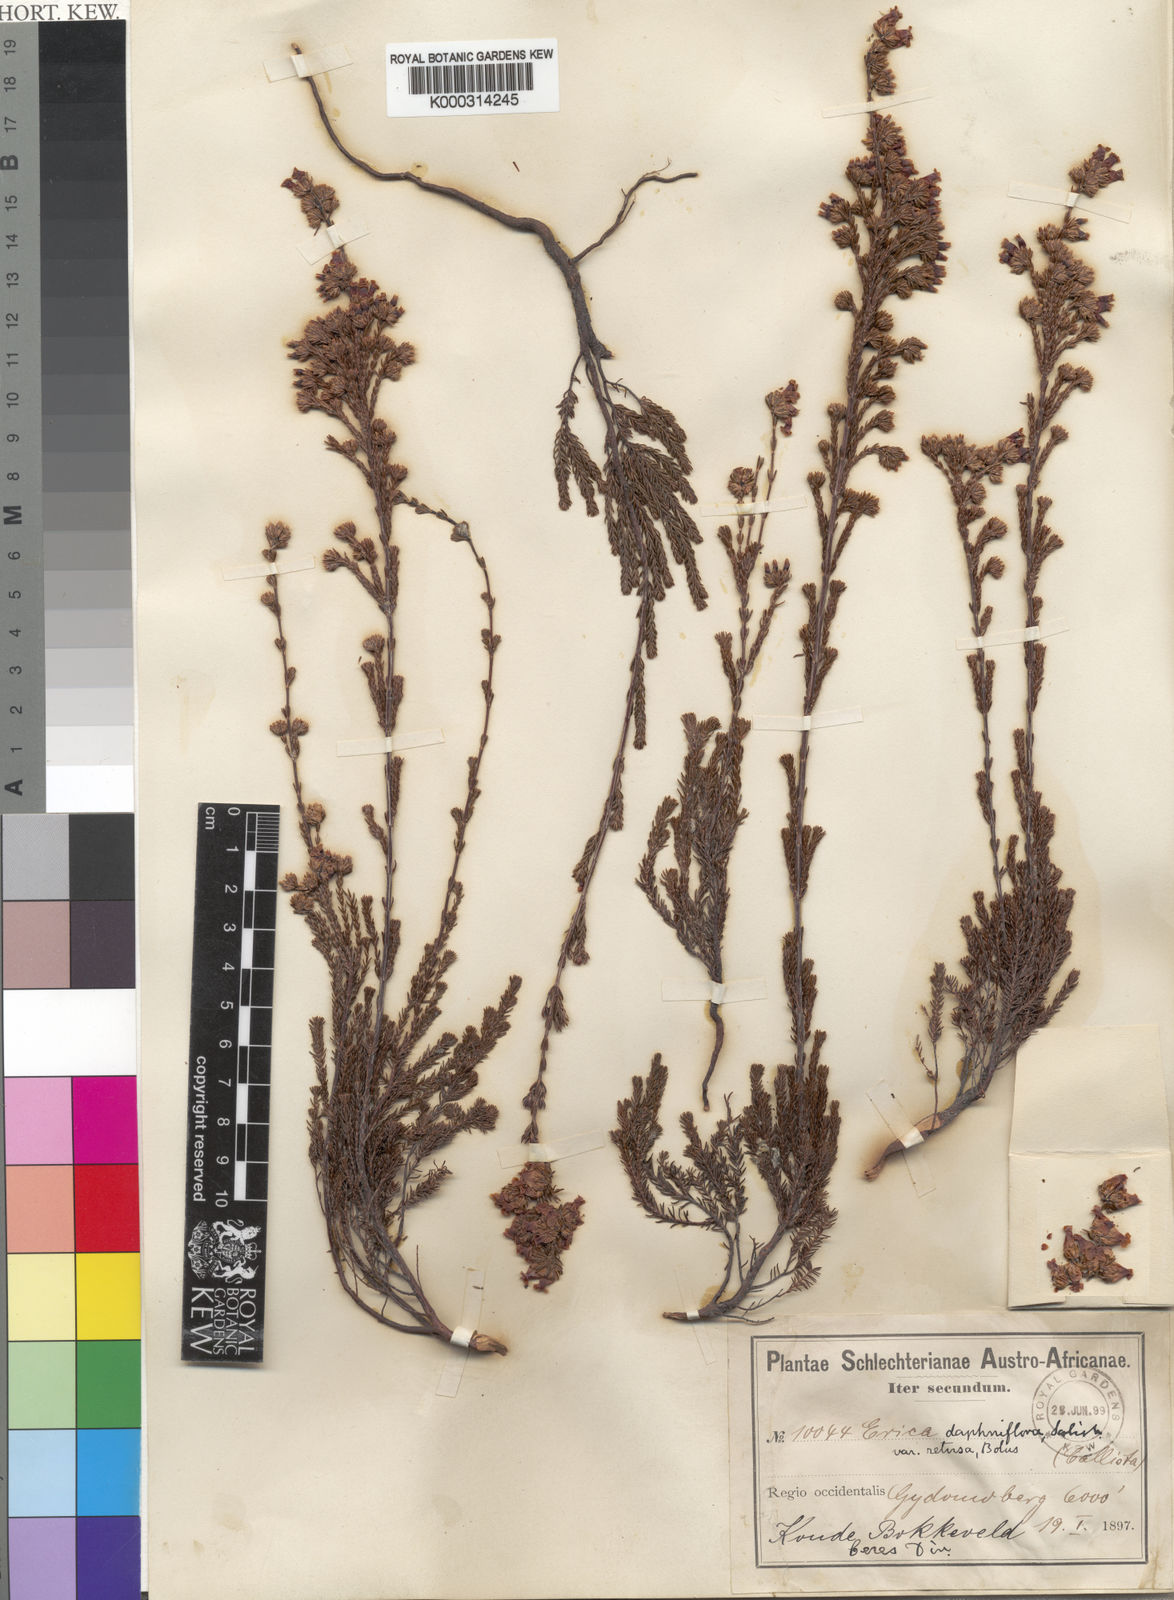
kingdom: Plantae
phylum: Tracheophyta
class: Magnoliopsida
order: Ericales
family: Ericaceae
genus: Erica
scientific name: Erica daphniflora
